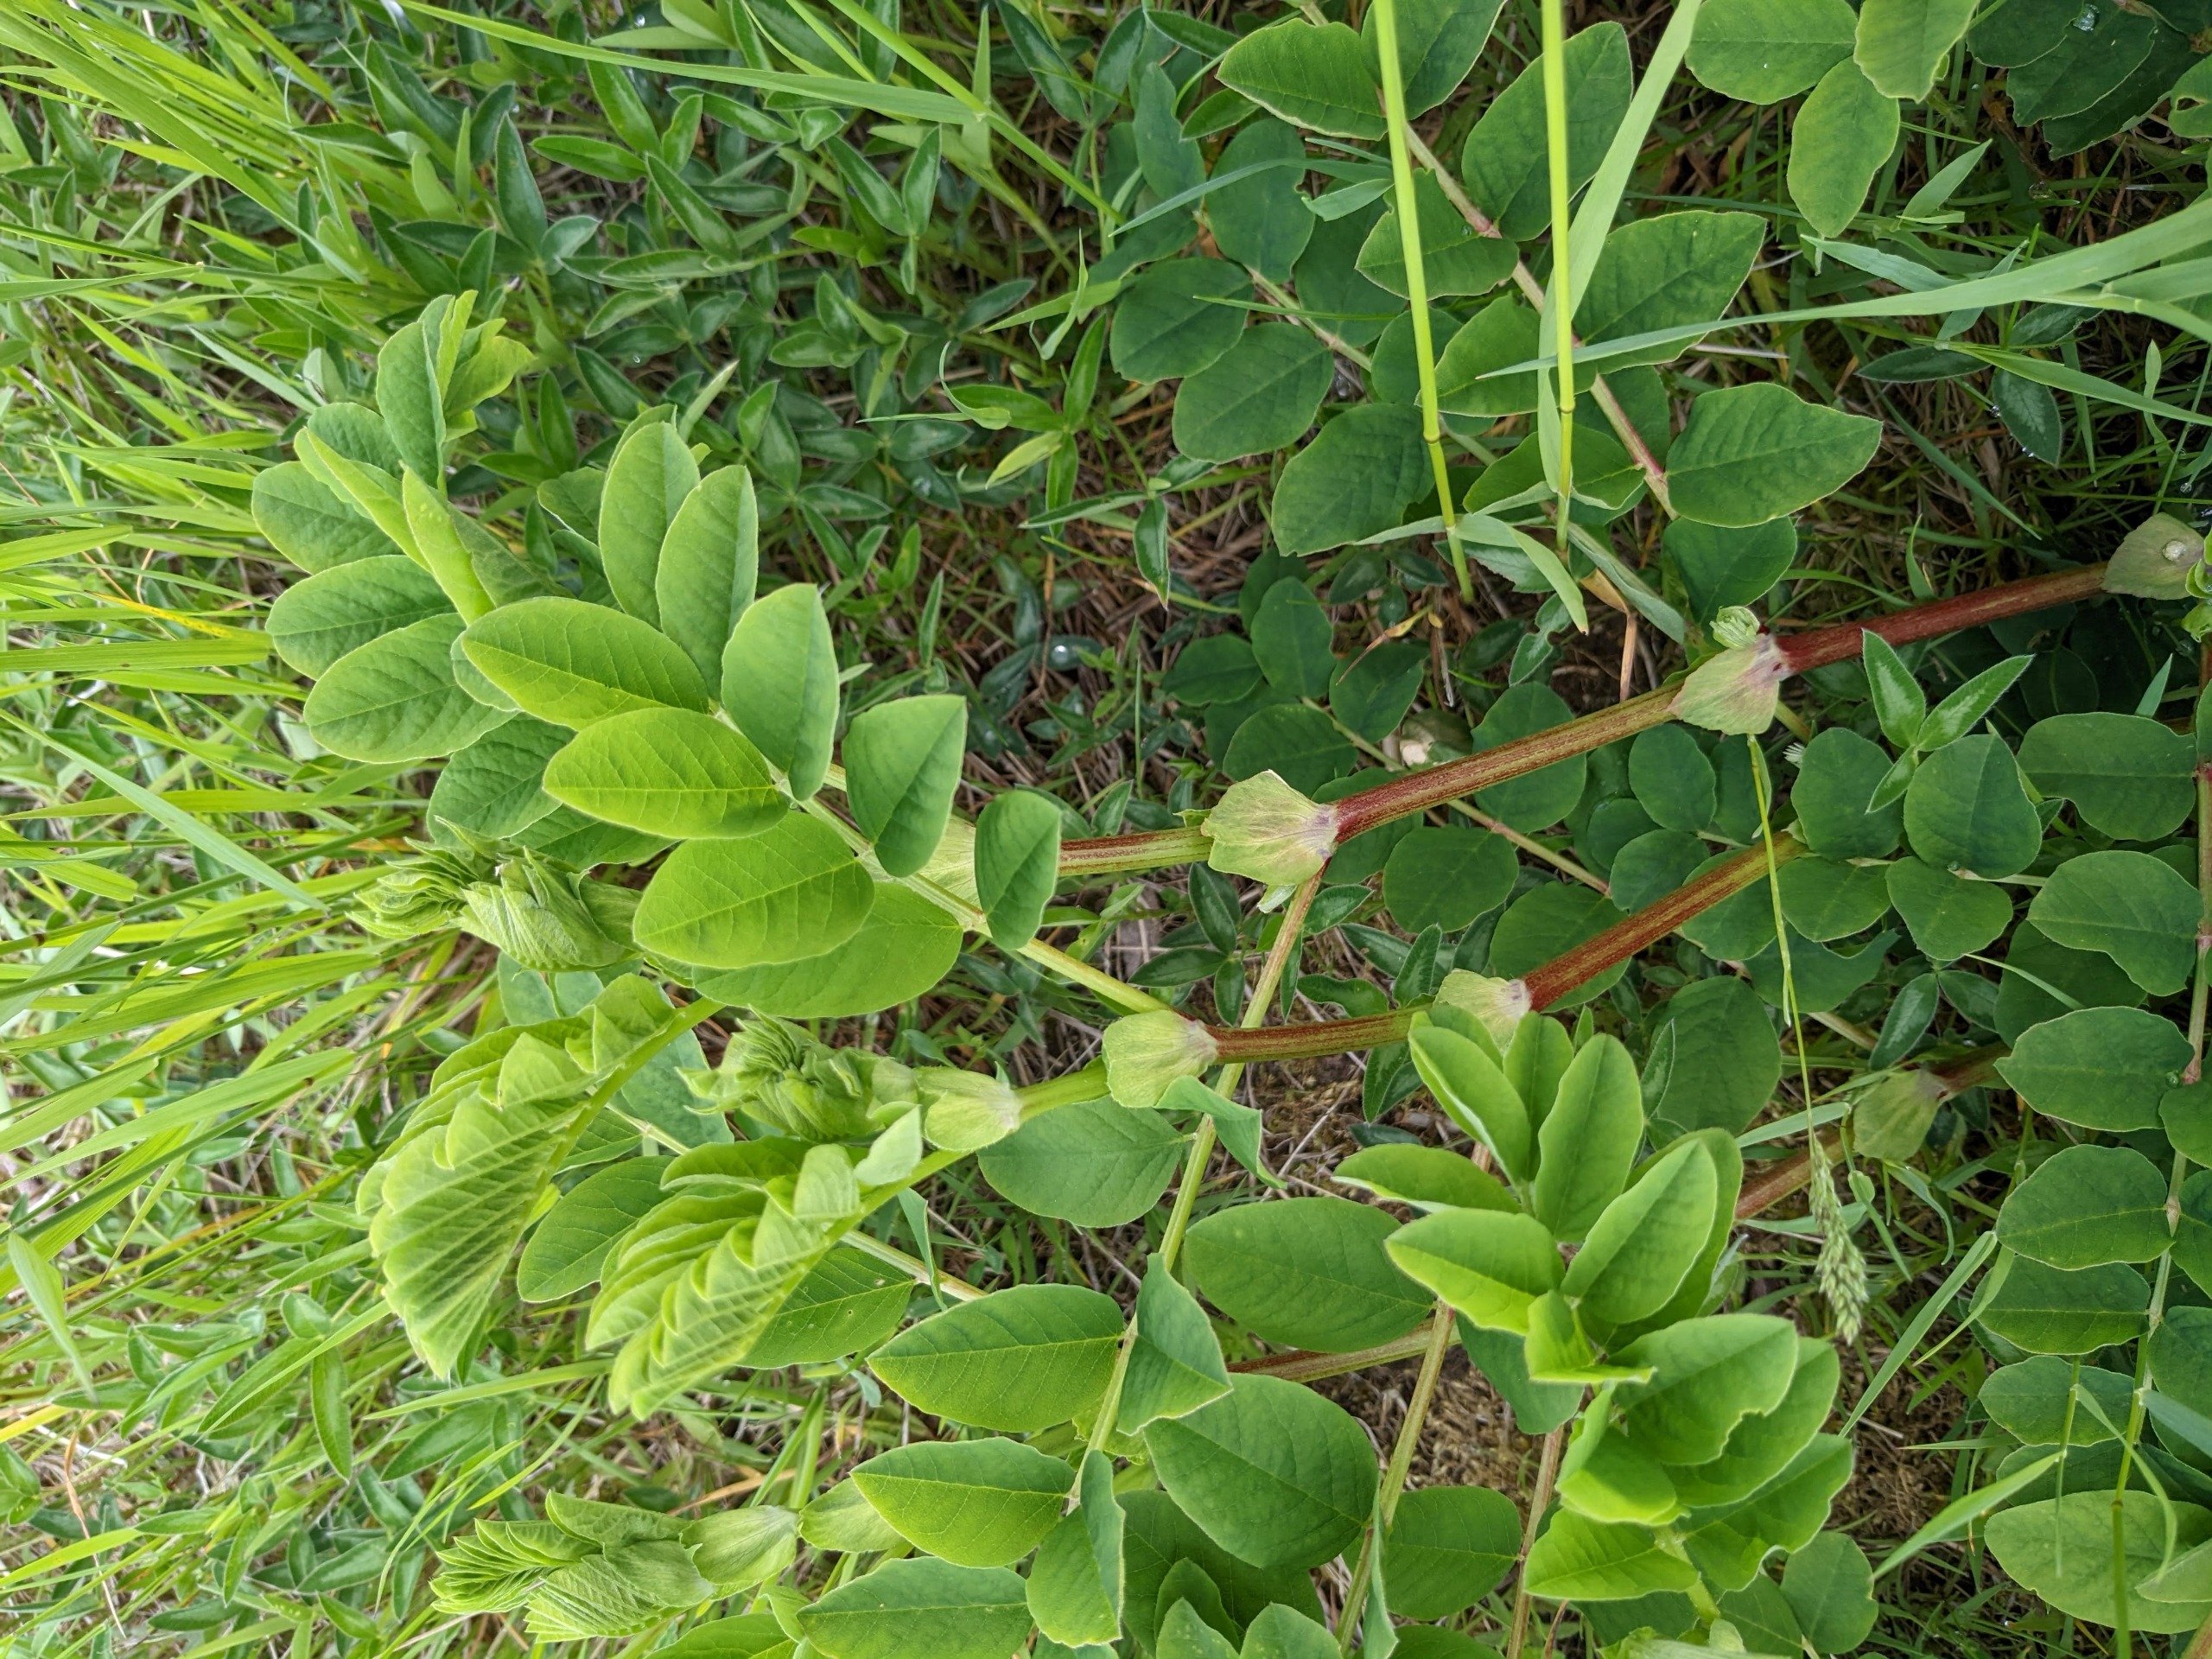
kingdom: Plantae
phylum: Tracheophyta
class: Magnoliopsida
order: Fabales
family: Fabaceae
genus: Astragalus
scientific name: Astragalus glycyphyllos
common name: Sød astragel
